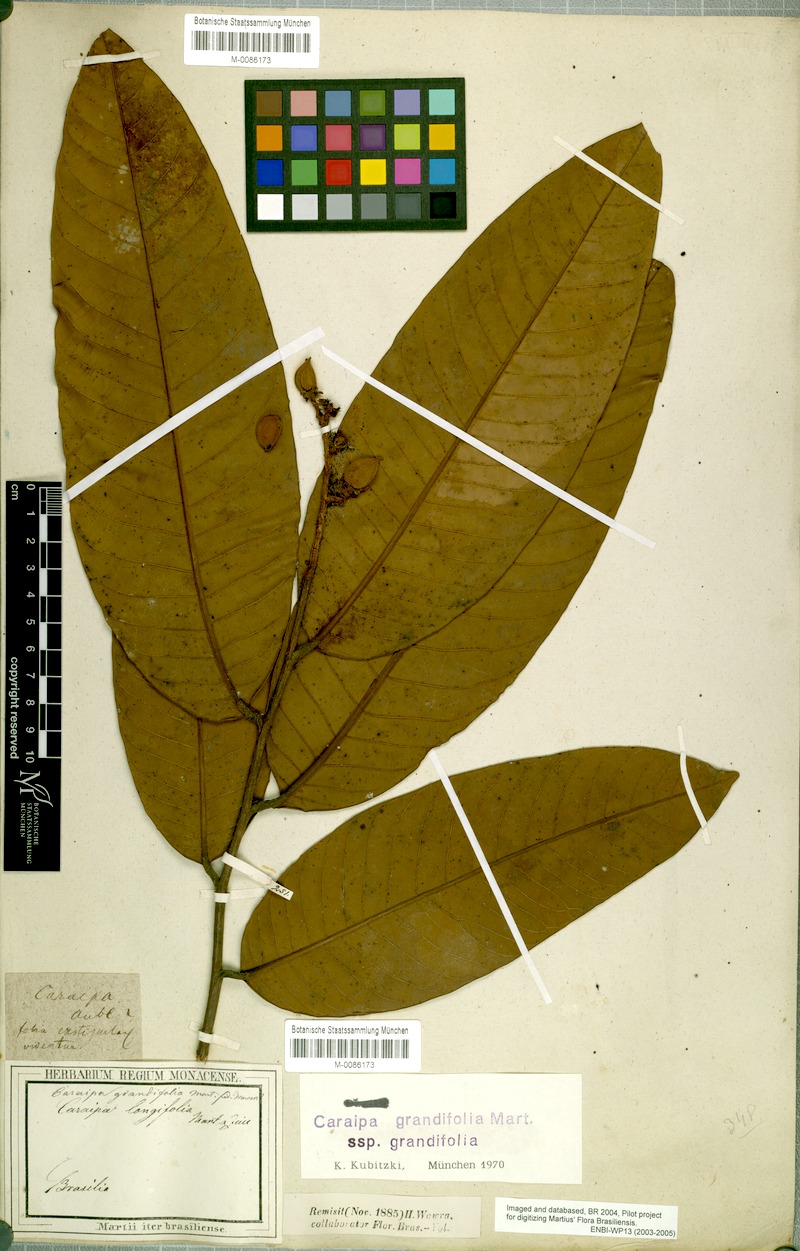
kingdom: Plantae
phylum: Tracheophyta
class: Magnoliopsida
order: Malpighiales
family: Calophyllaceae
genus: Caraipa
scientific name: Caraipa grandifolia
